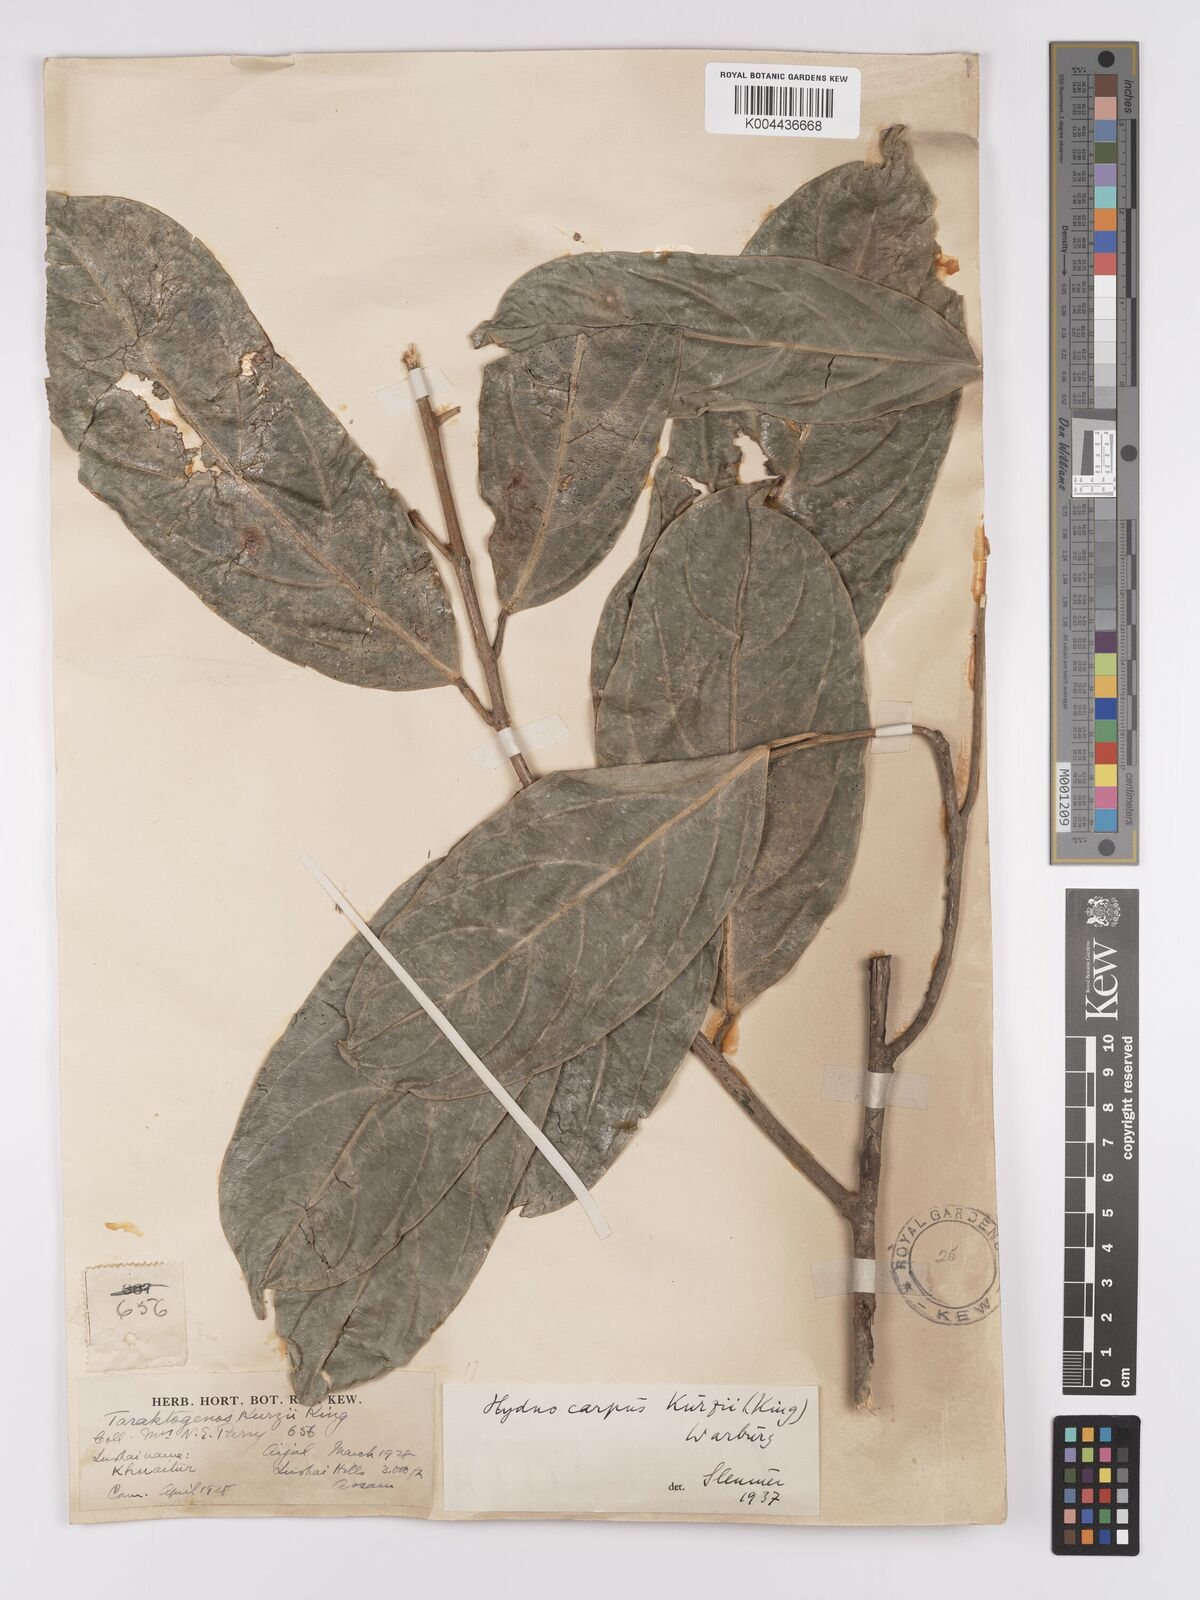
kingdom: Plantae
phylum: Tracheophyta
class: Magnoliopsida
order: Malpighiales
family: Achariaceae
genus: Hydnocarpus
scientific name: Hydnocarpus kurzii
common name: Chaulmoogra
